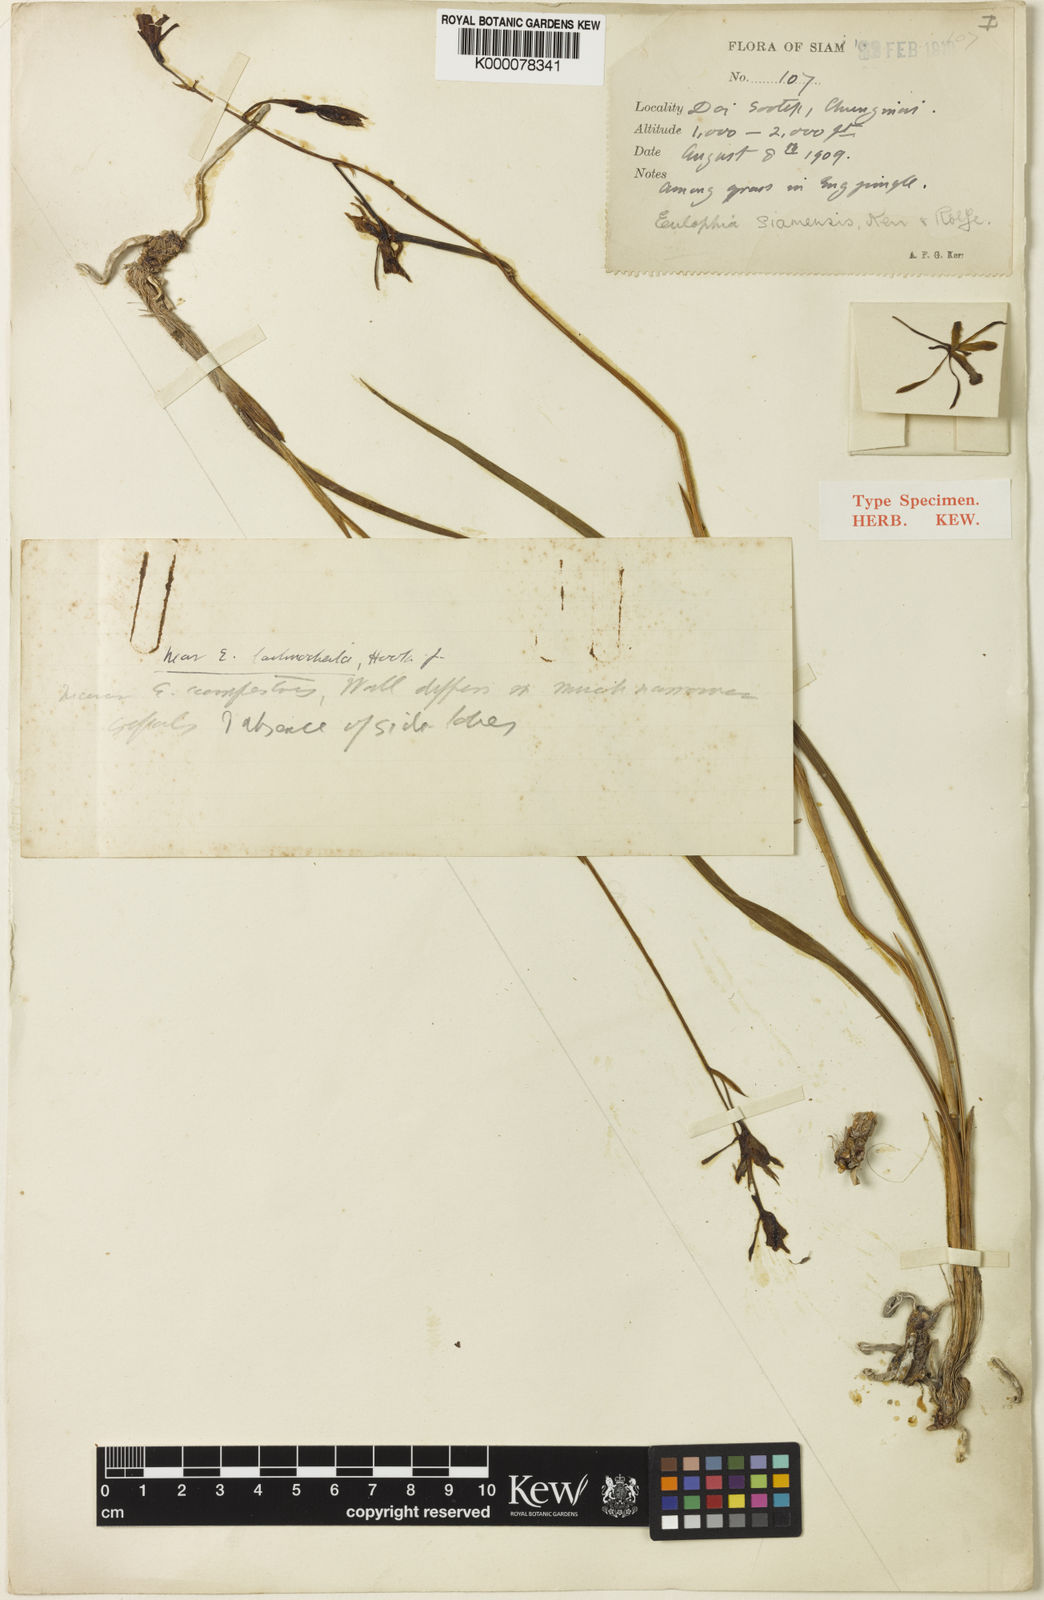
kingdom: Plantae
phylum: Tracheophyta
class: Liliopsida
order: Asparagales
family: Orchidaceae
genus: Eulophia
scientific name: Eulophia siamensis
